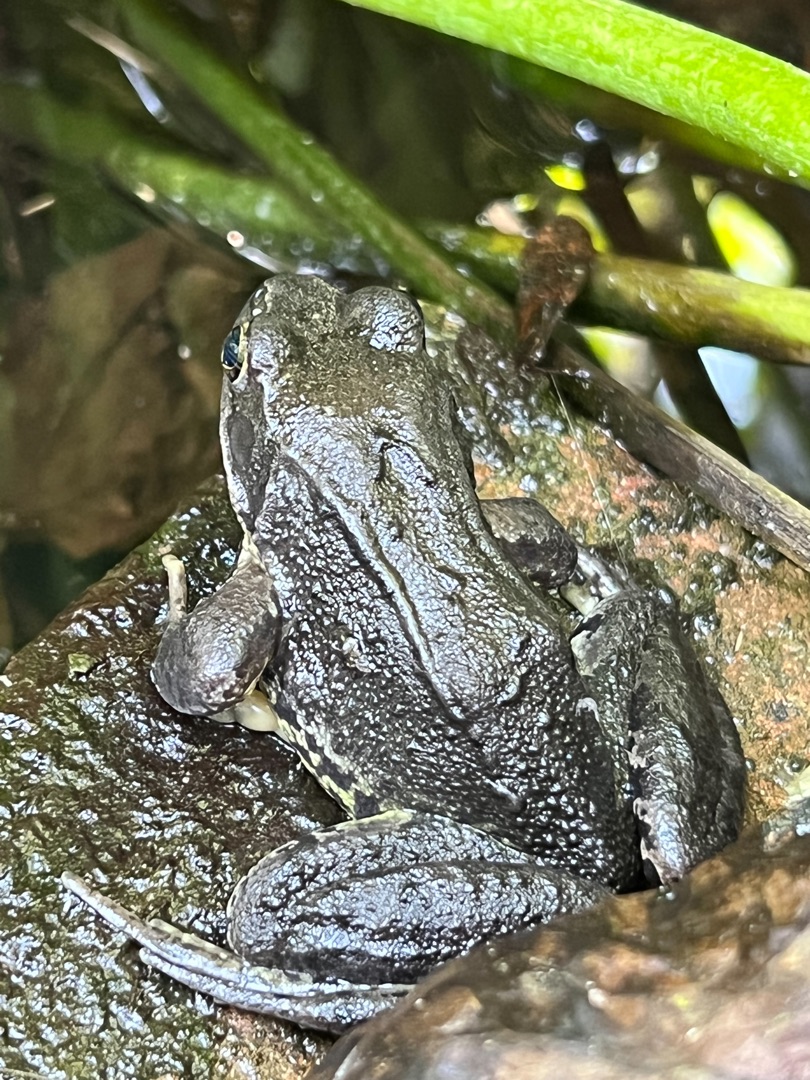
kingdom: Animalia
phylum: Chordata
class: Amphibia
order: Anura
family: Ranidae
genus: Rana
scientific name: Rana temporaria
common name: Butsnudet frø
